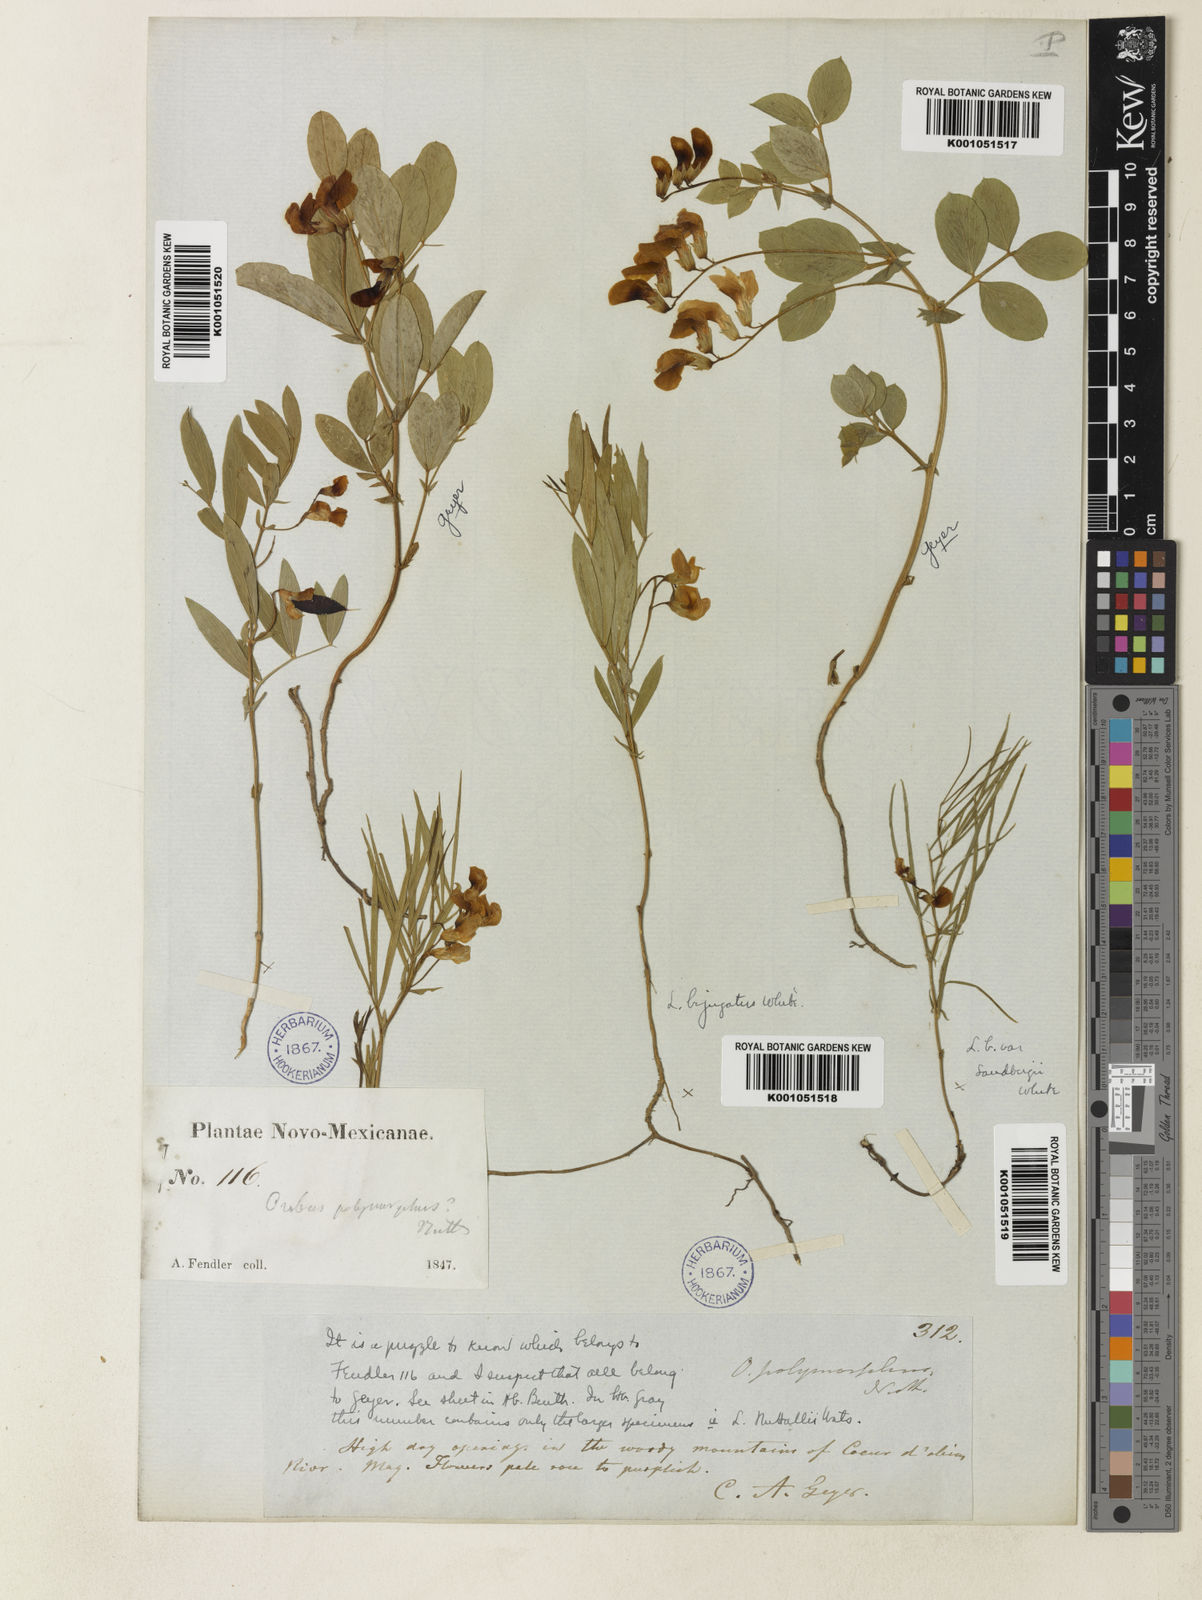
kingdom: Plantae
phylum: Tracheophyta
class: Magnoliopsida
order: Fabales
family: Fabaceae
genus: Lathyrus
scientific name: Lathyrus decaphyllus
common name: Prairie vetchling
